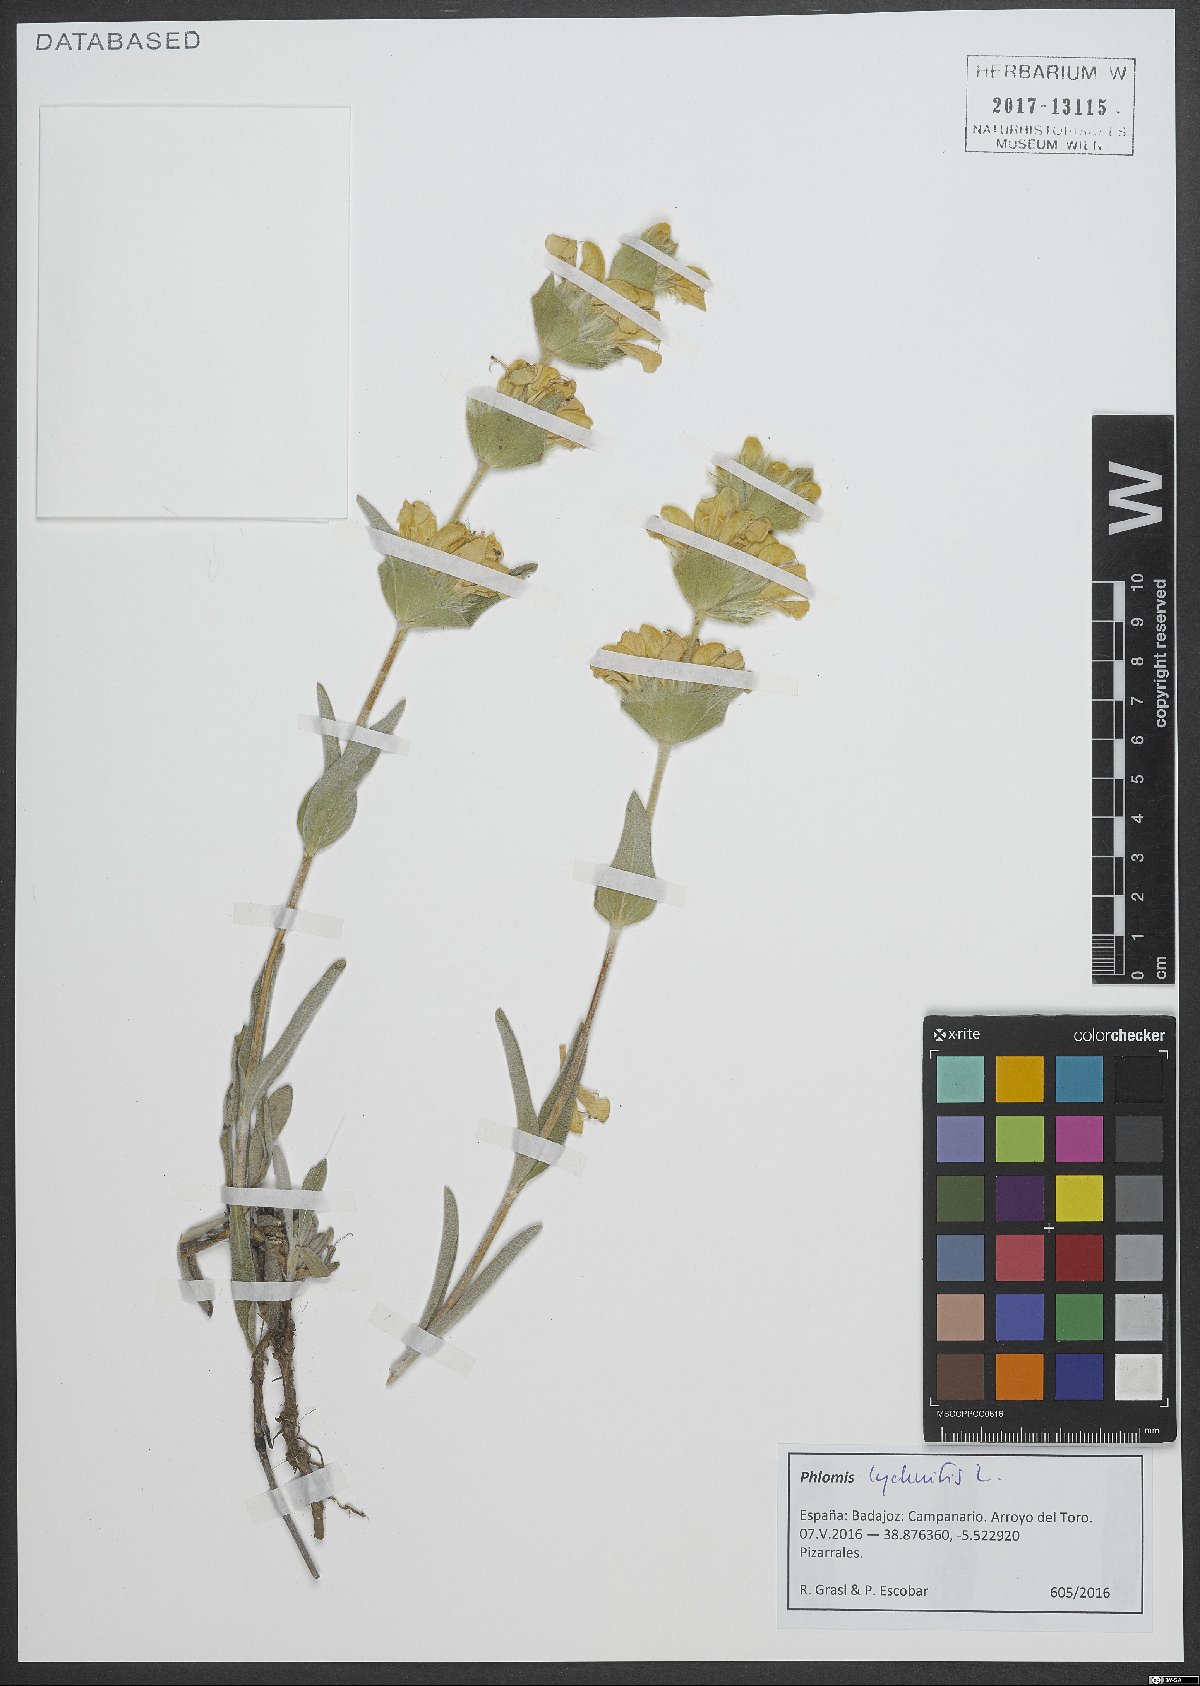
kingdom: Plantae
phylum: Tracheophyta
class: Magnoliopsida
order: Lamiales
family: Lamiaceae
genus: Phlomis
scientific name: Phlomis lychnitis
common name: Lampwickplant
